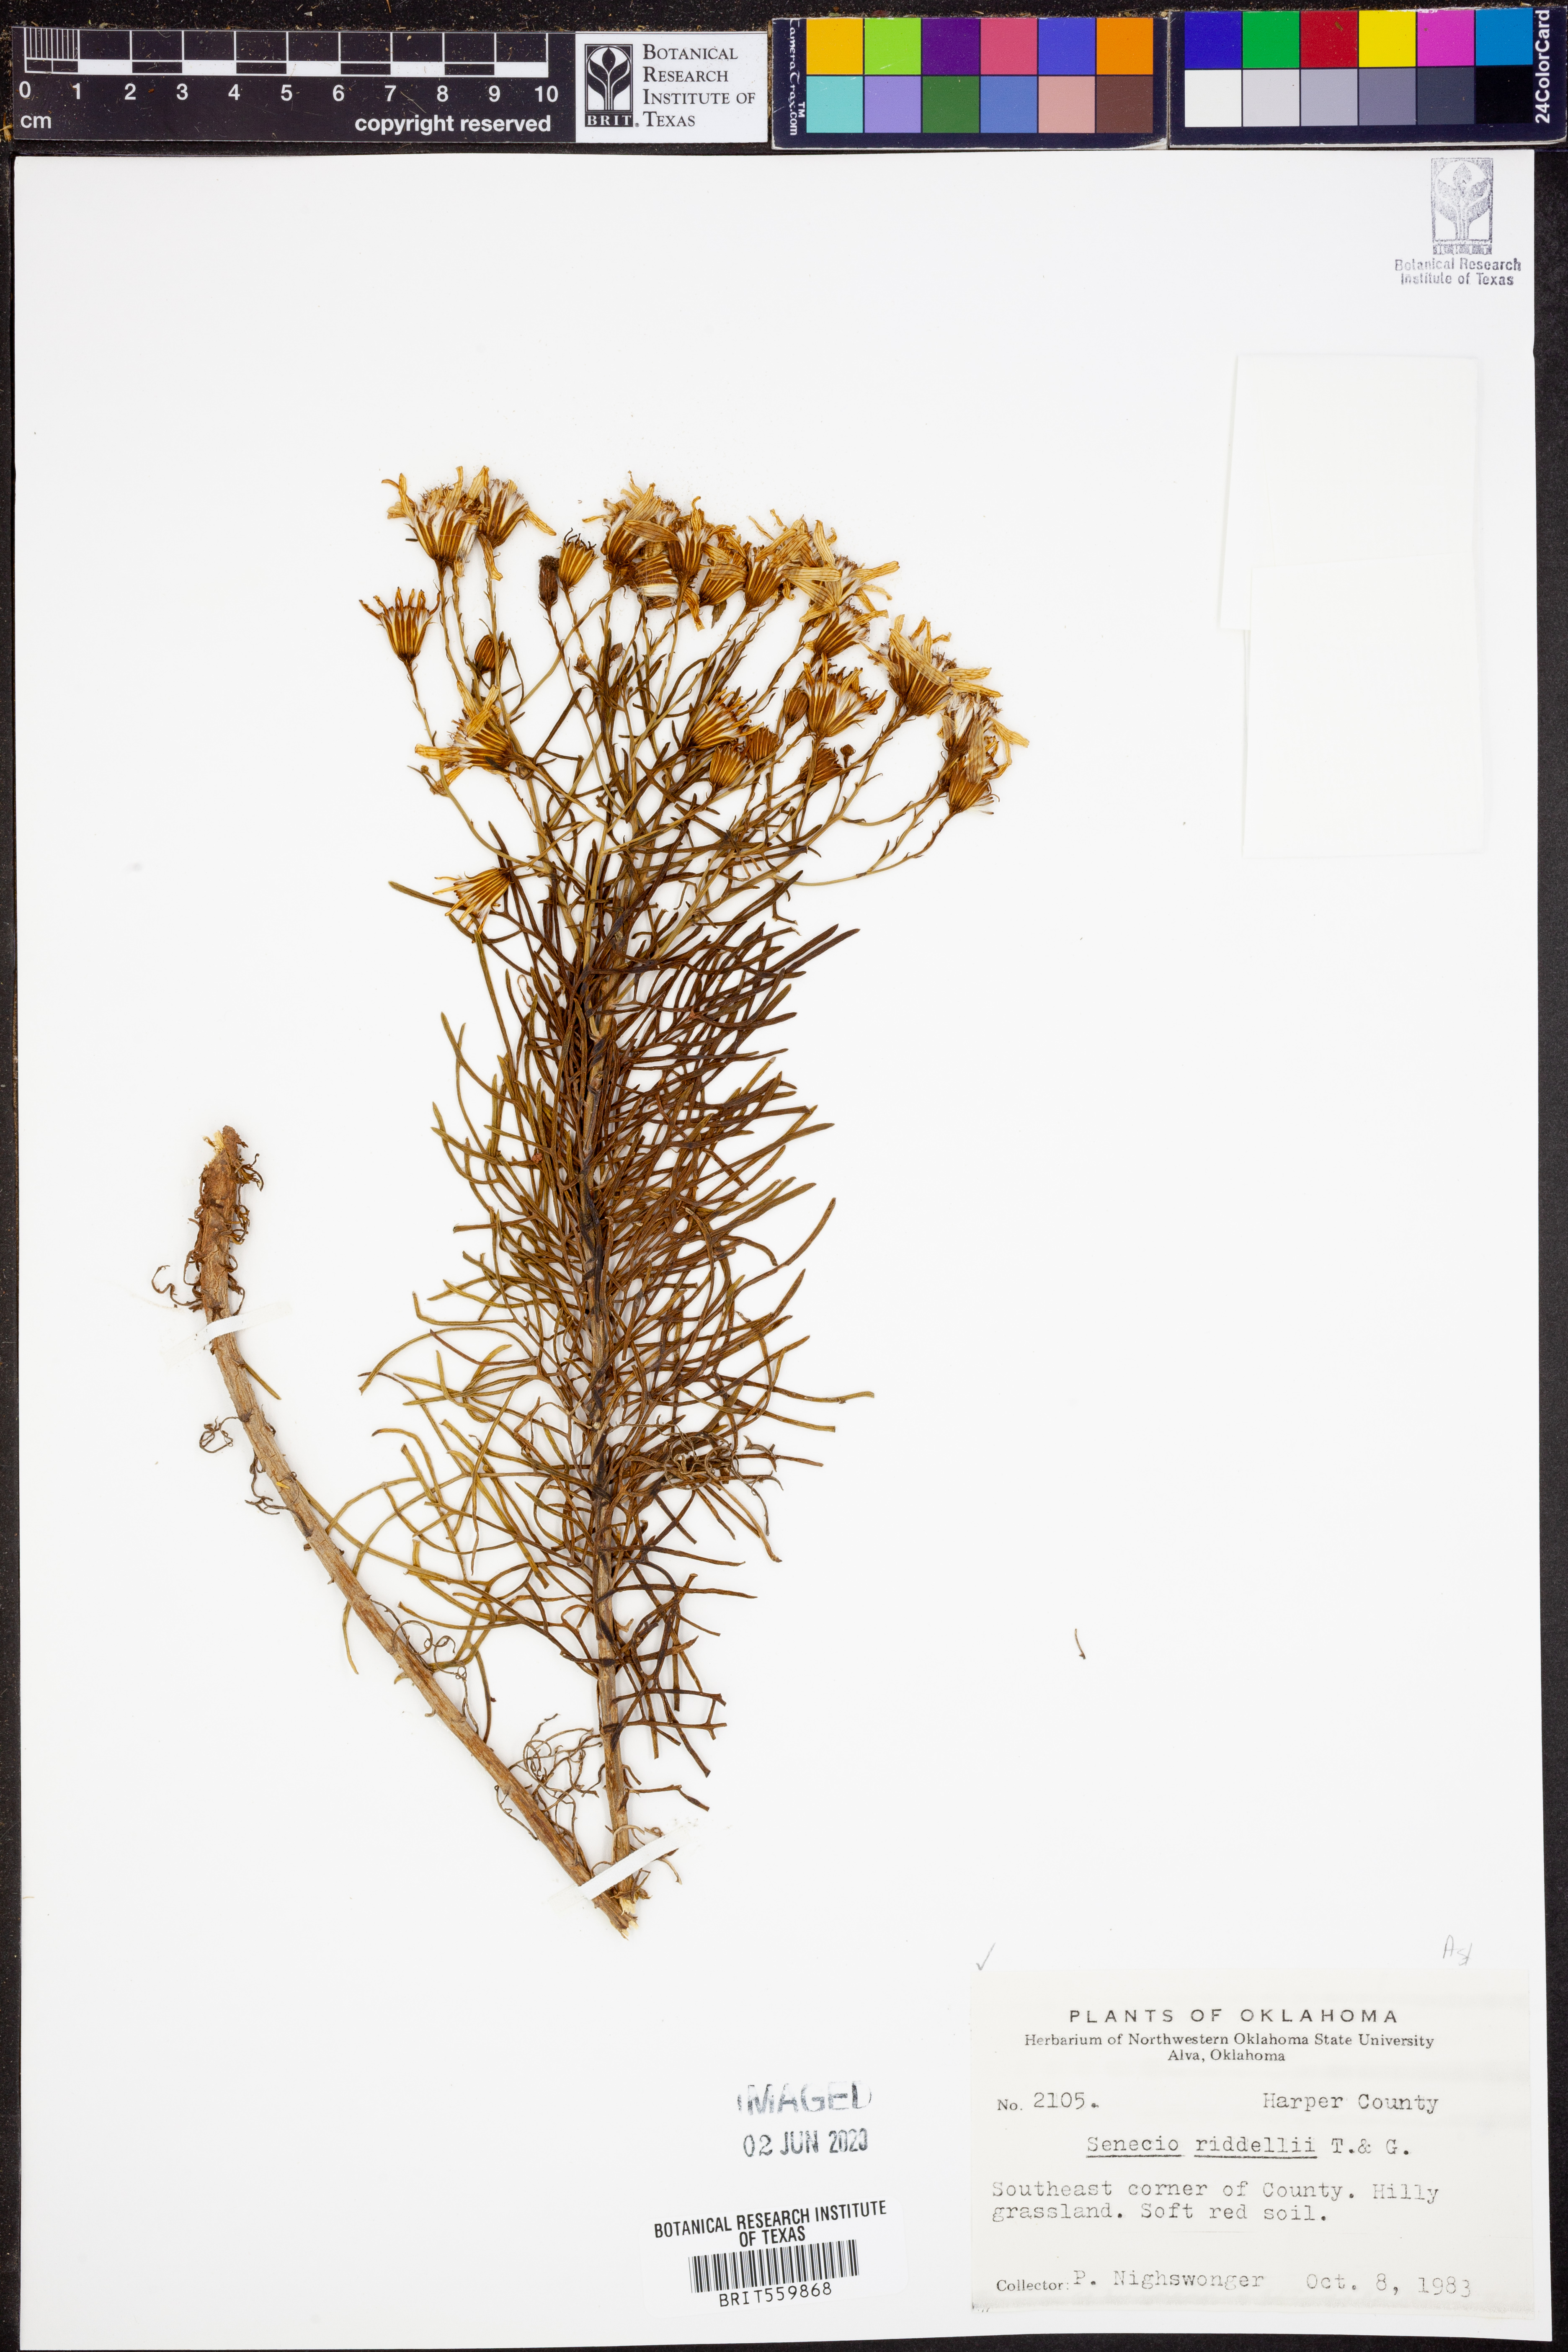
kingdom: Plantae
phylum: Tracheophyta
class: Magnoliopsida
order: Asterales
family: Asteraceae
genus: Senecio
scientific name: Senecio riddellii
